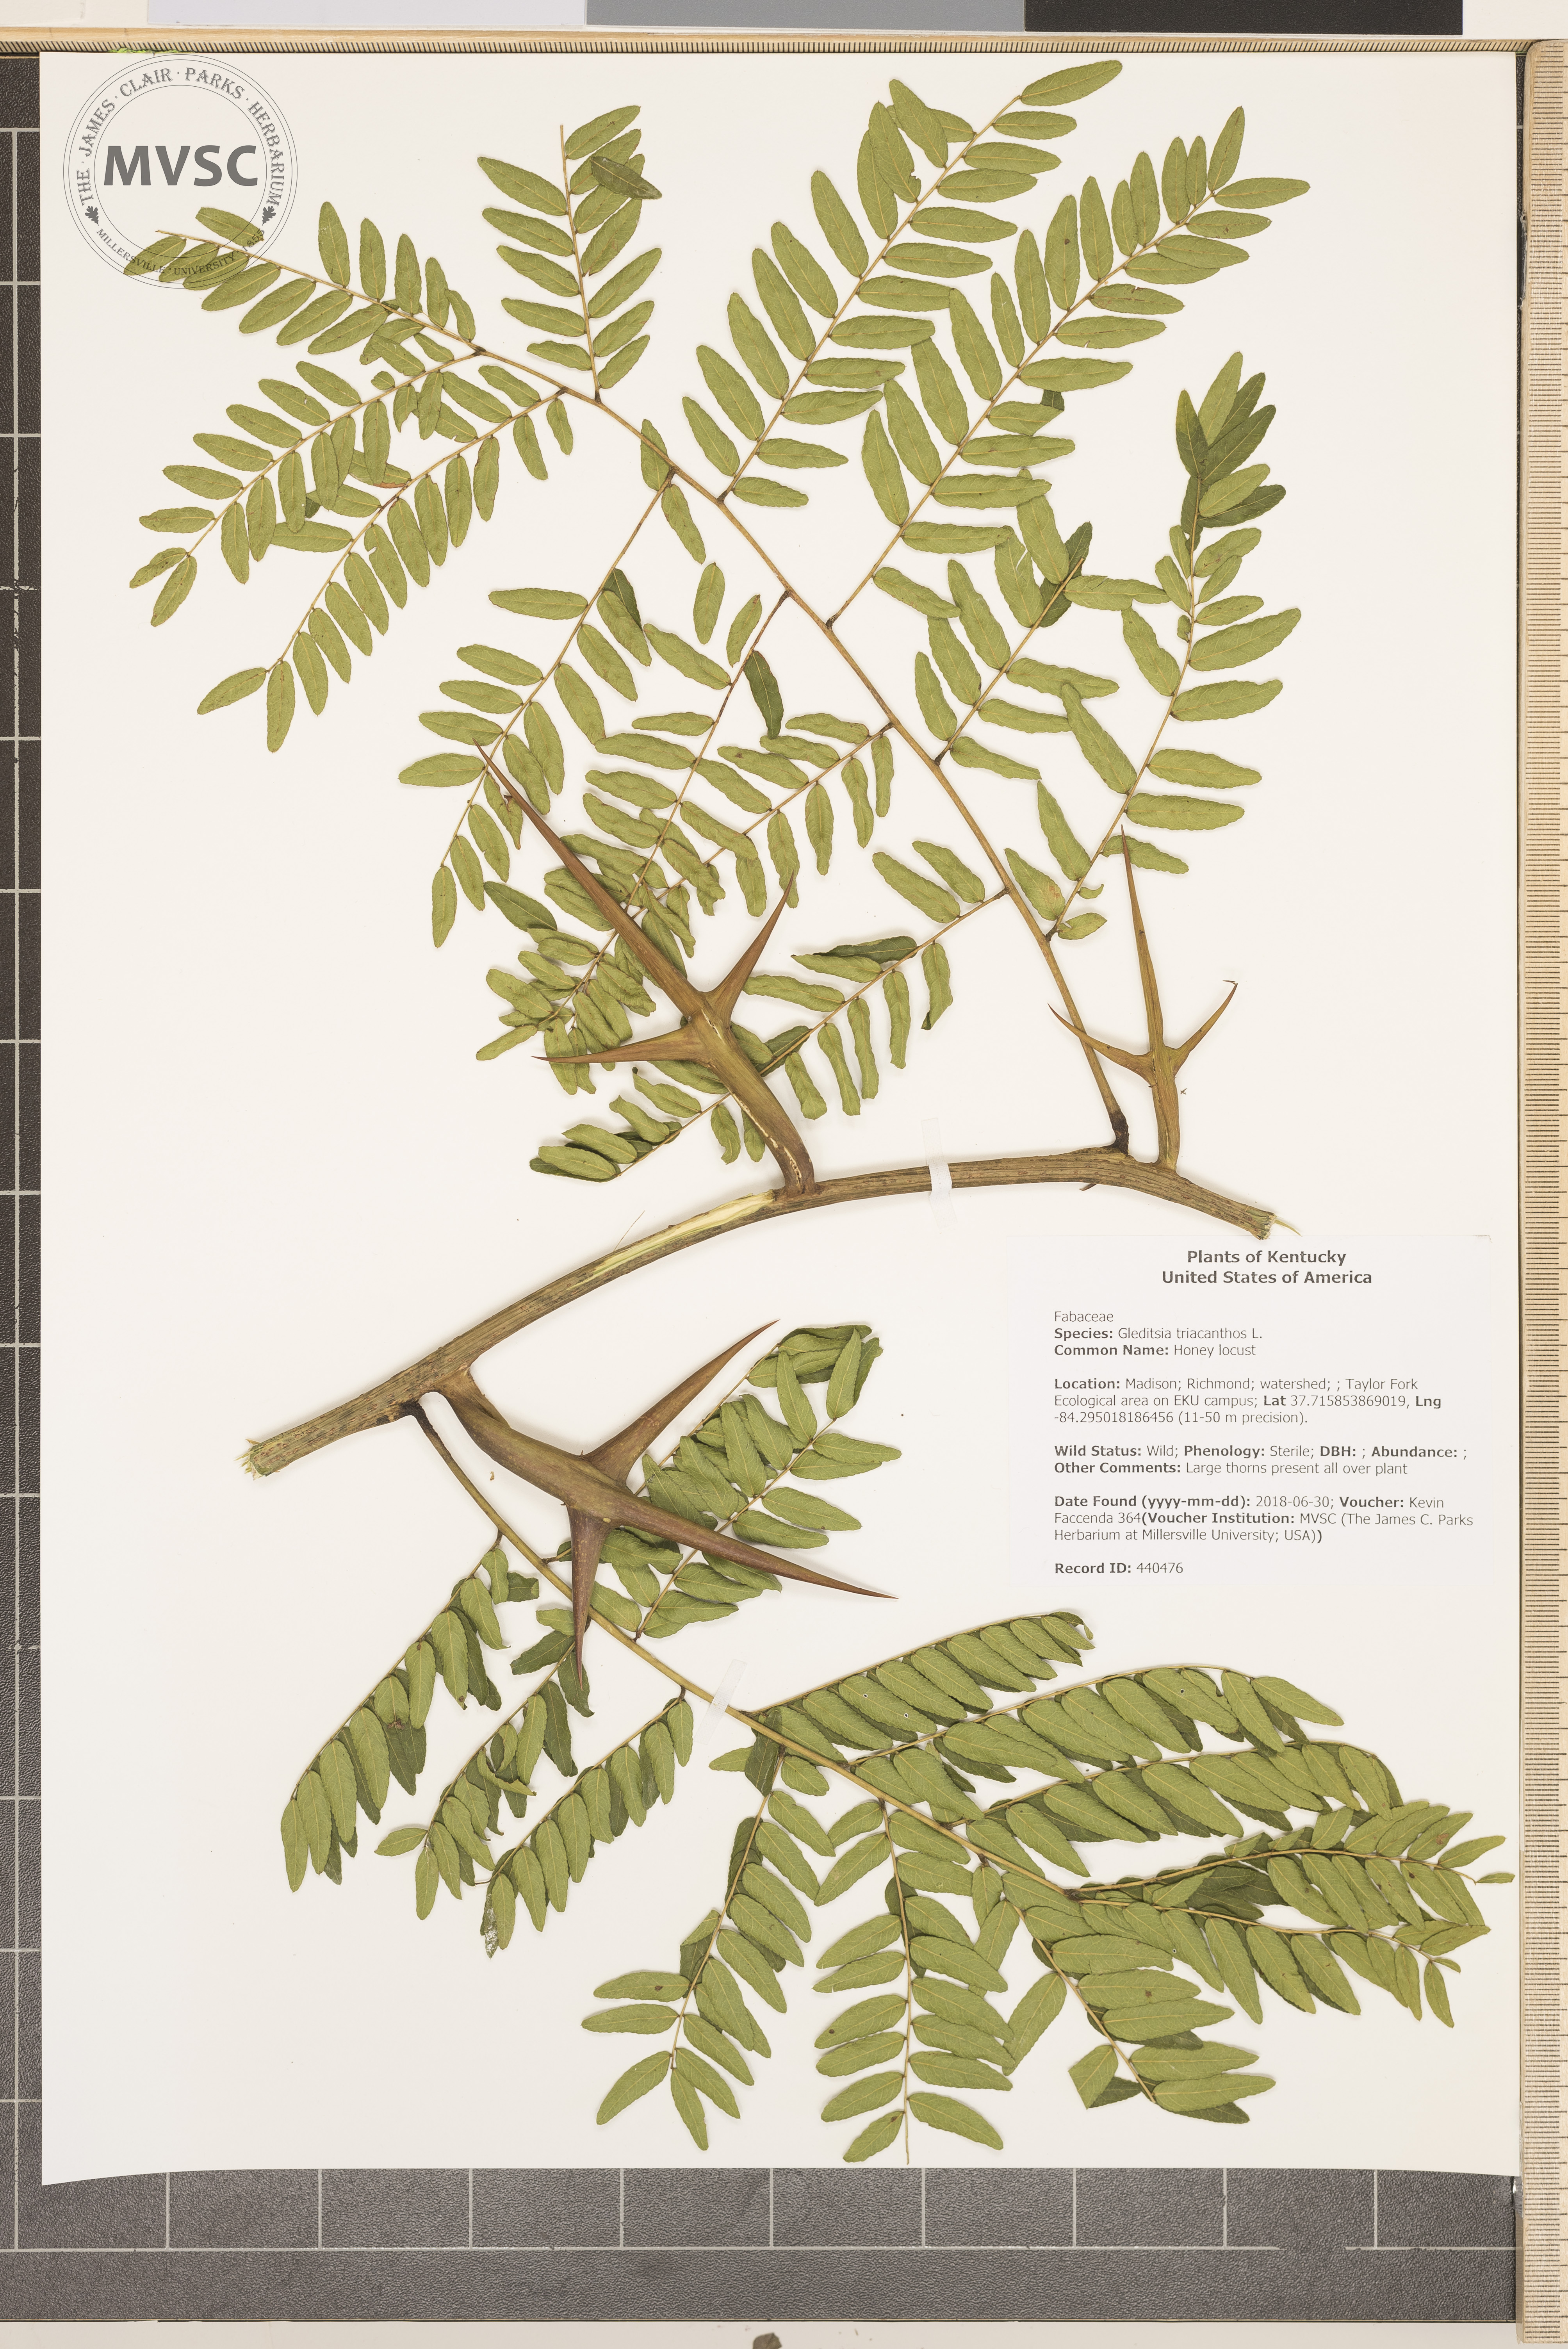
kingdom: Plantae
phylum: Tracheophyta
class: Magnoliopsida
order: Fabales
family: Fabaceae
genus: Gleditsia
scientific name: Gleditsia triacanthos
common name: Honey locust
